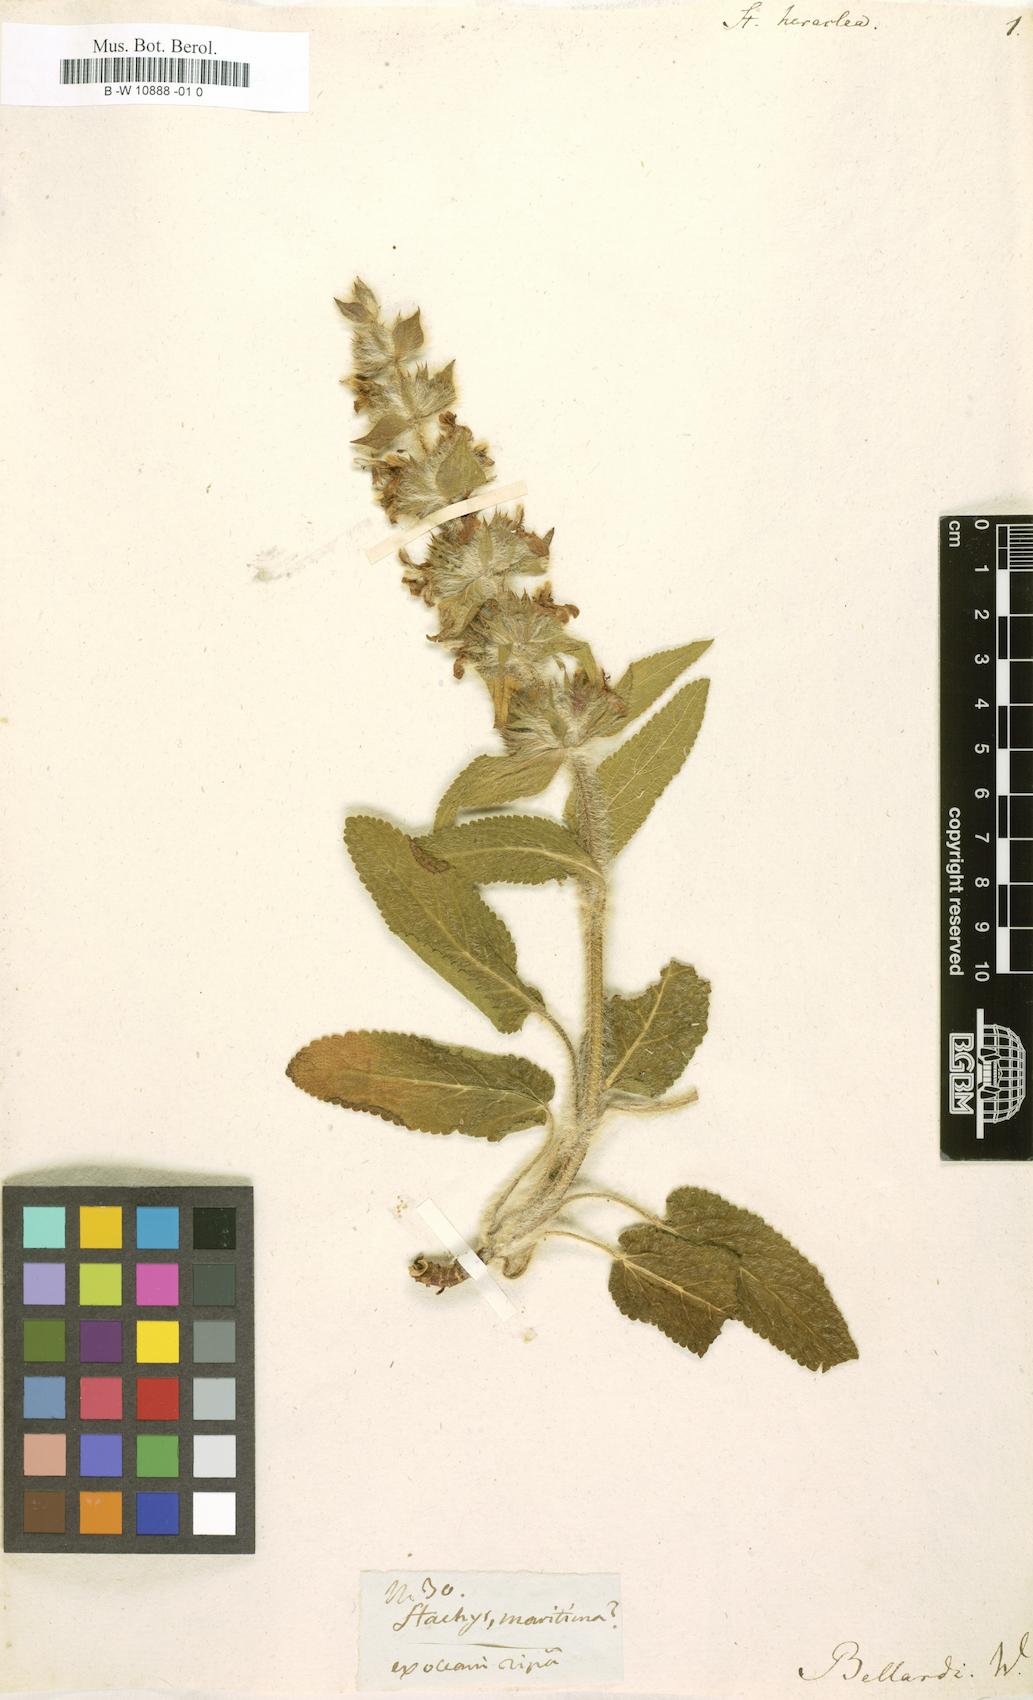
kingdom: Plantae
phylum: Tracheophyta
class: Magnoliopsida
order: Lamiales
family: Lamiaceae
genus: Stachys
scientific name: Stachys heraclea
